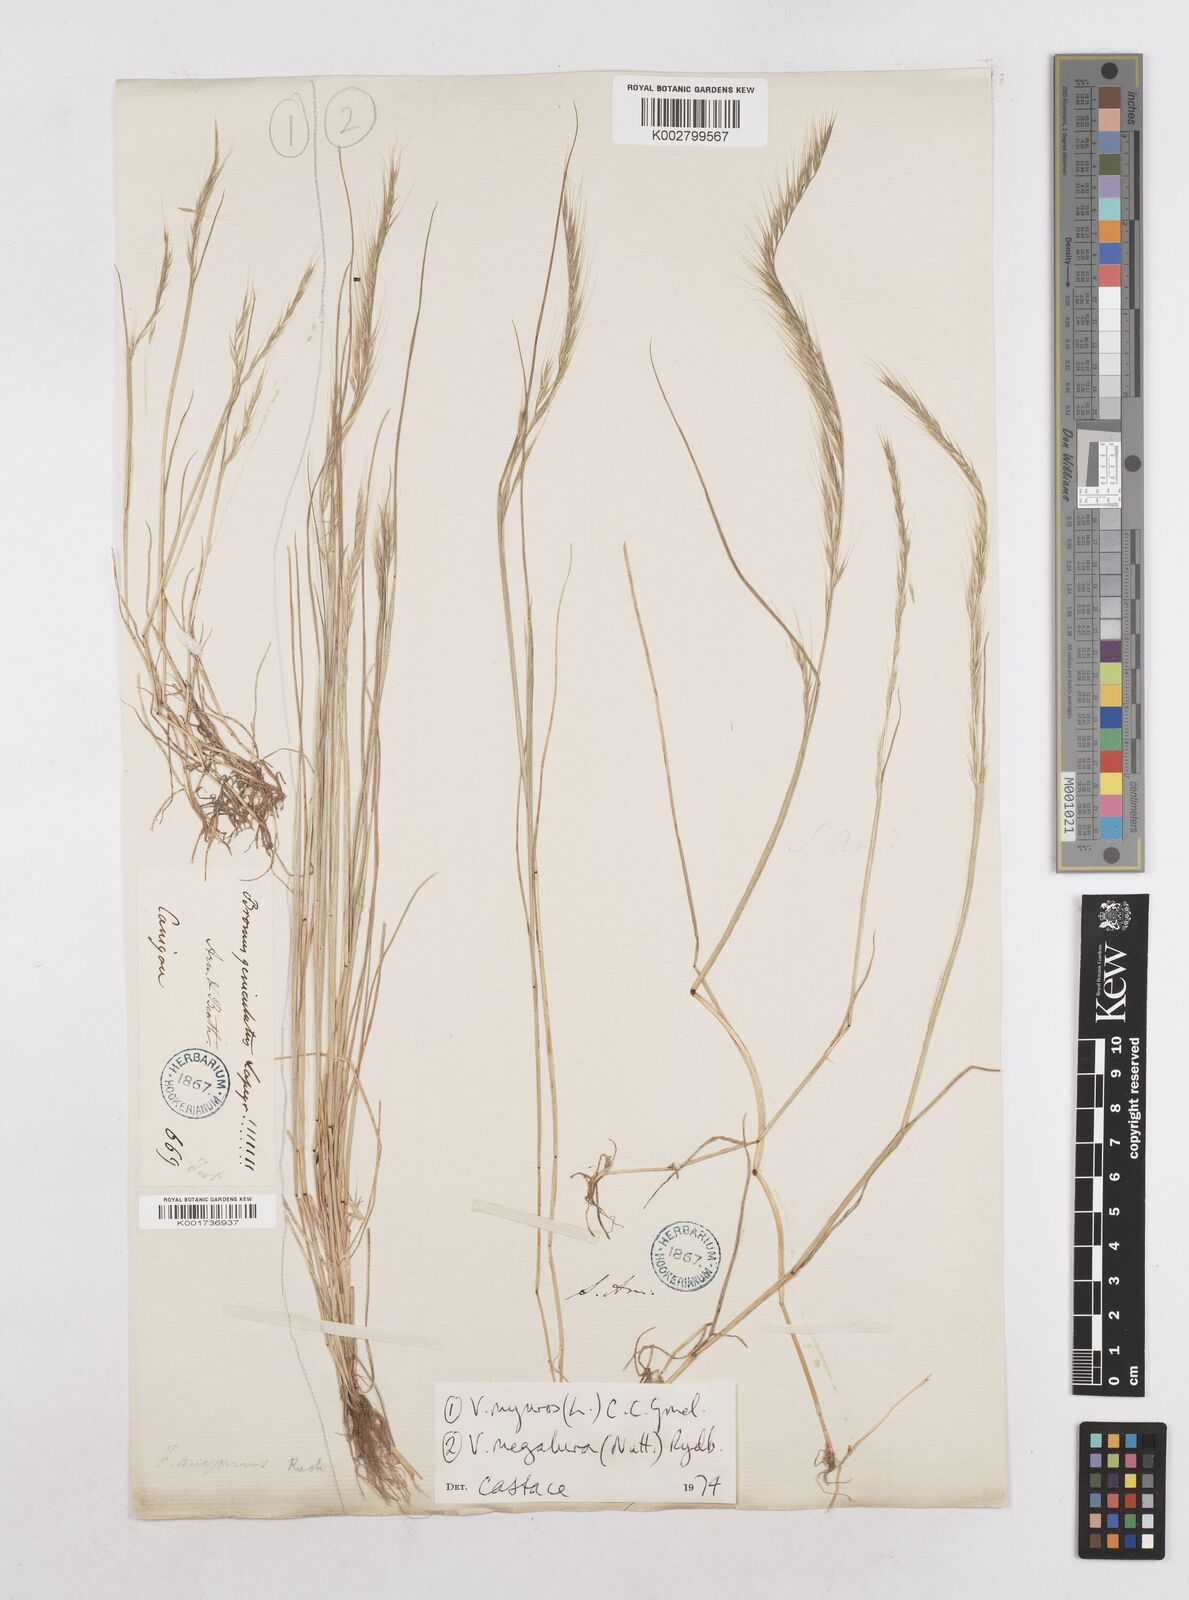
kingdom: Plantae
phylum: Tracheophyta
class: Liliopsida
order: Poales
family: Poaceae
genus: Festuca
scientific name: Festuca myuros
